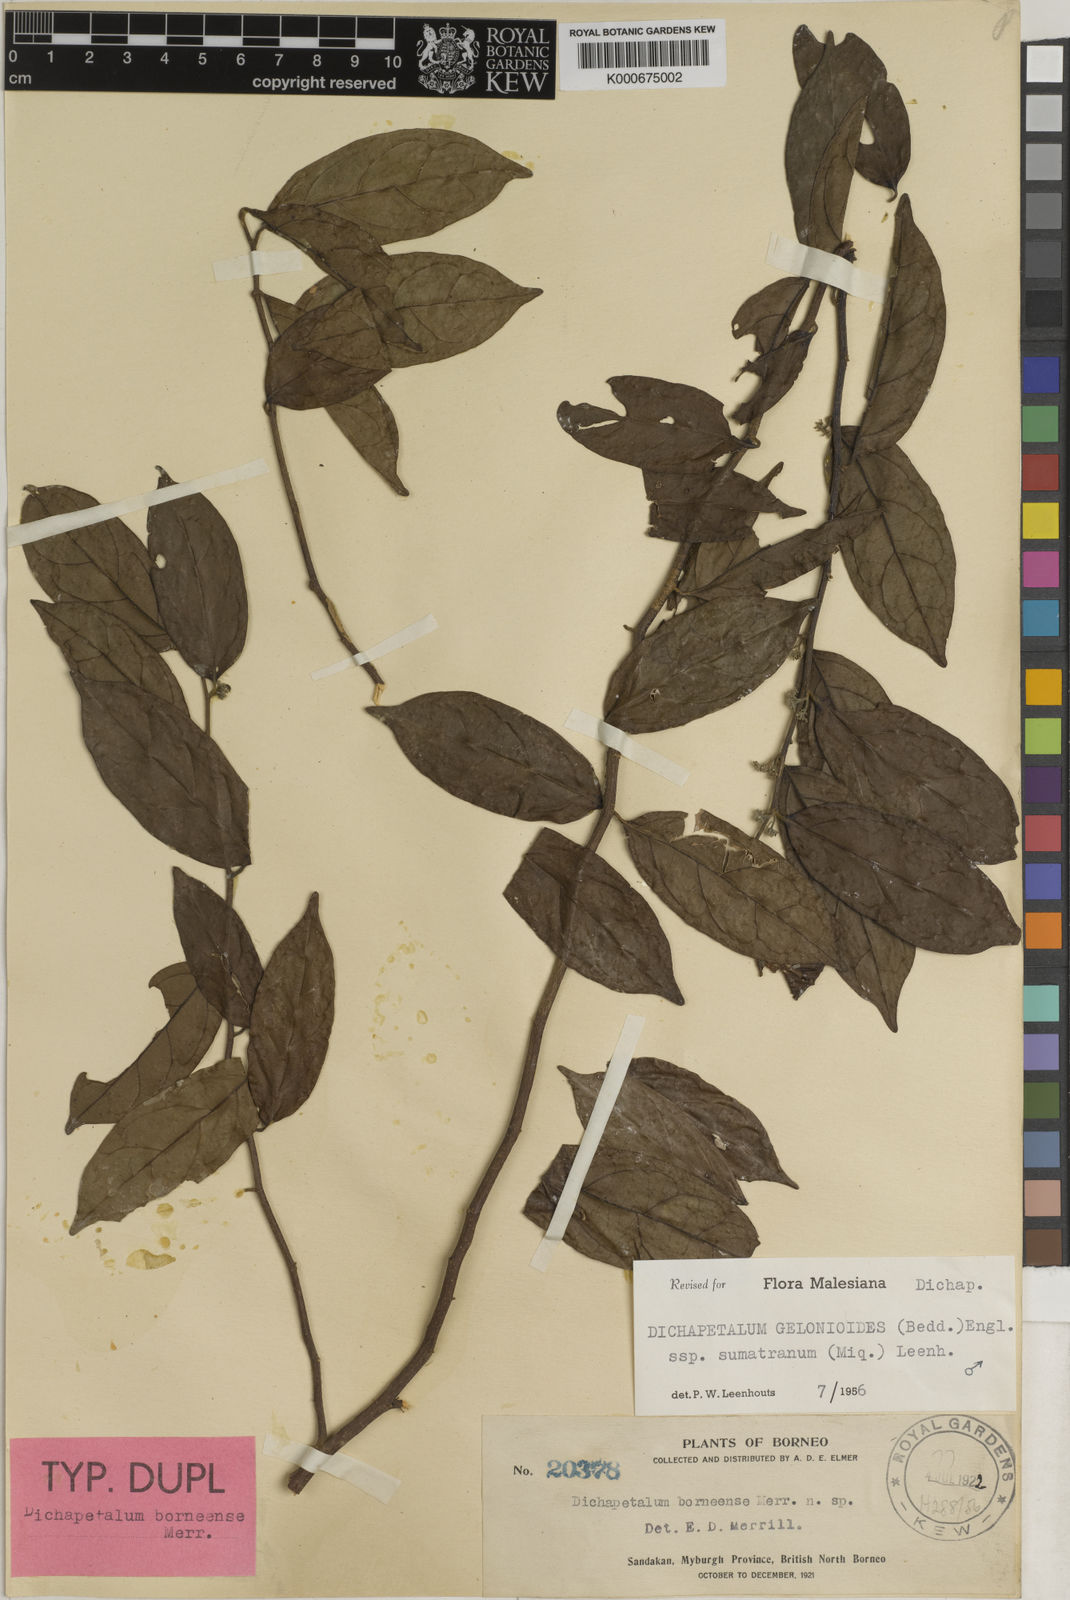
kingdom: Plantae
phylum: Tracheophyta
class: Magnoliopsida
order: Malpighiales
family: Dichapetalaceae
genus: Dichapetalum
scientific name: Dichapetalum gelonioides
